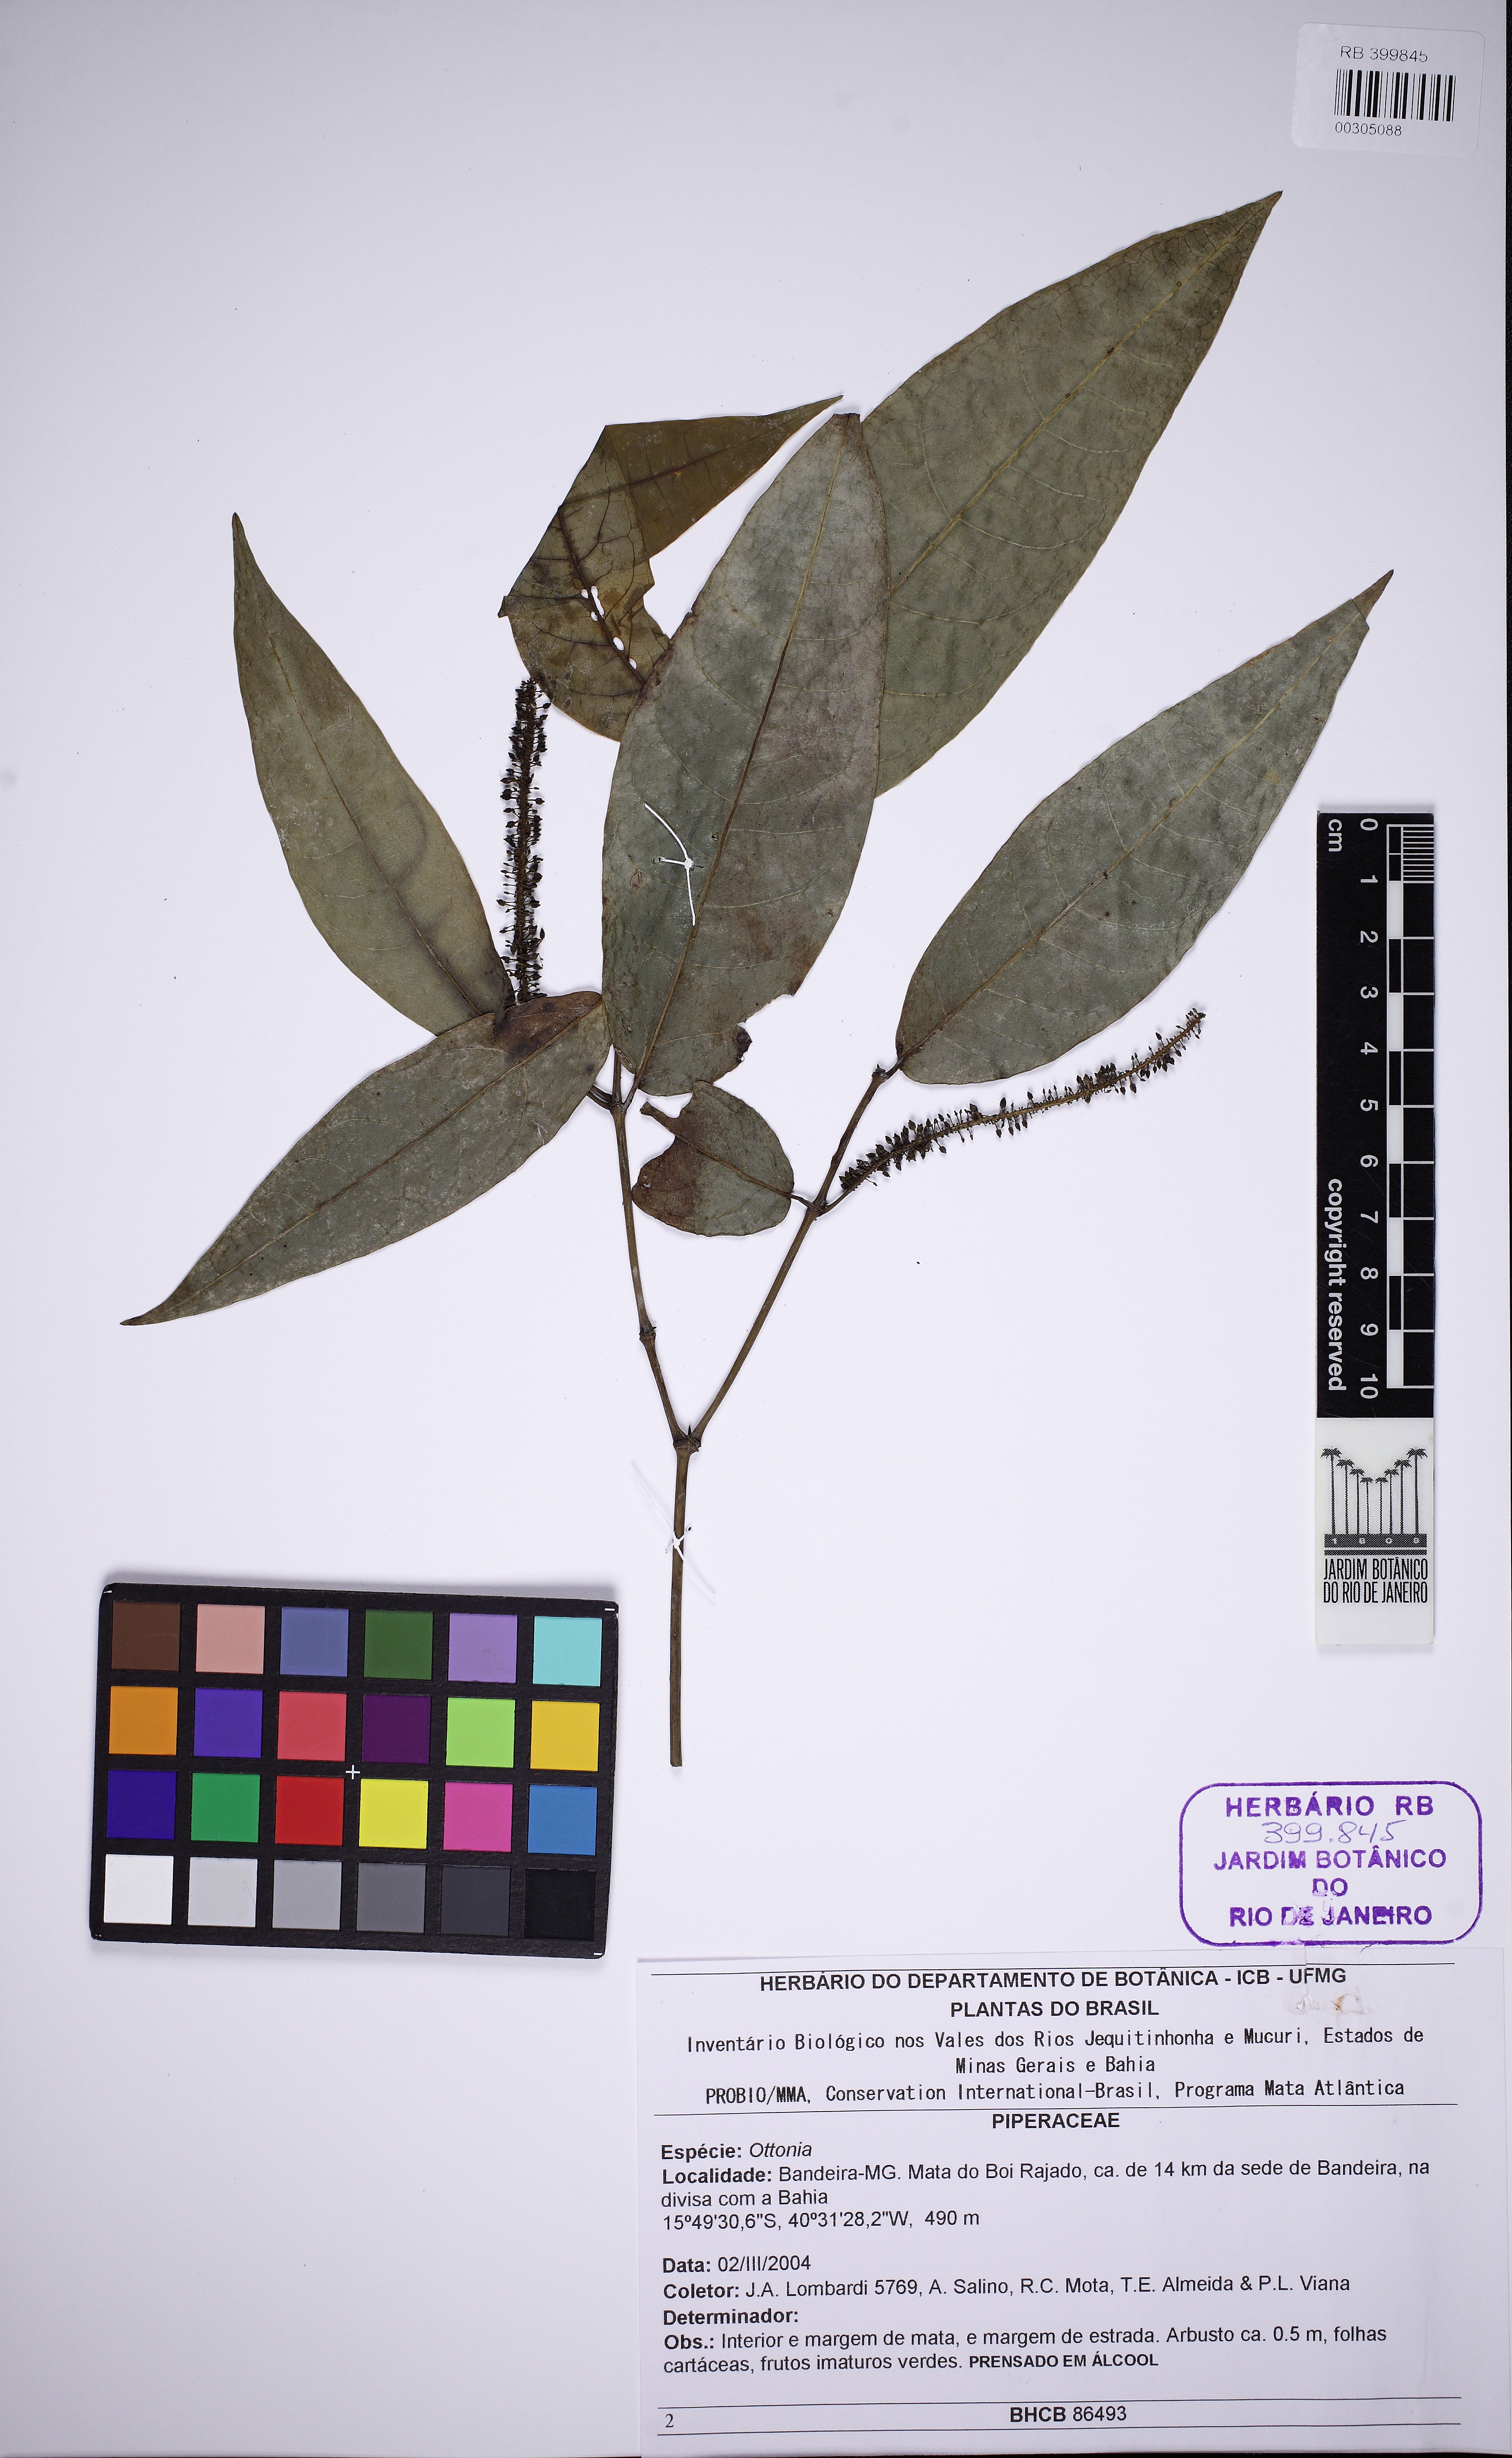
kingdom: Plantae
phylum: Tracheophyta
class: Magnoliopsida
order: Piperales
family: Piperaceae
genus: Piper
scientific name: Piper anisum
